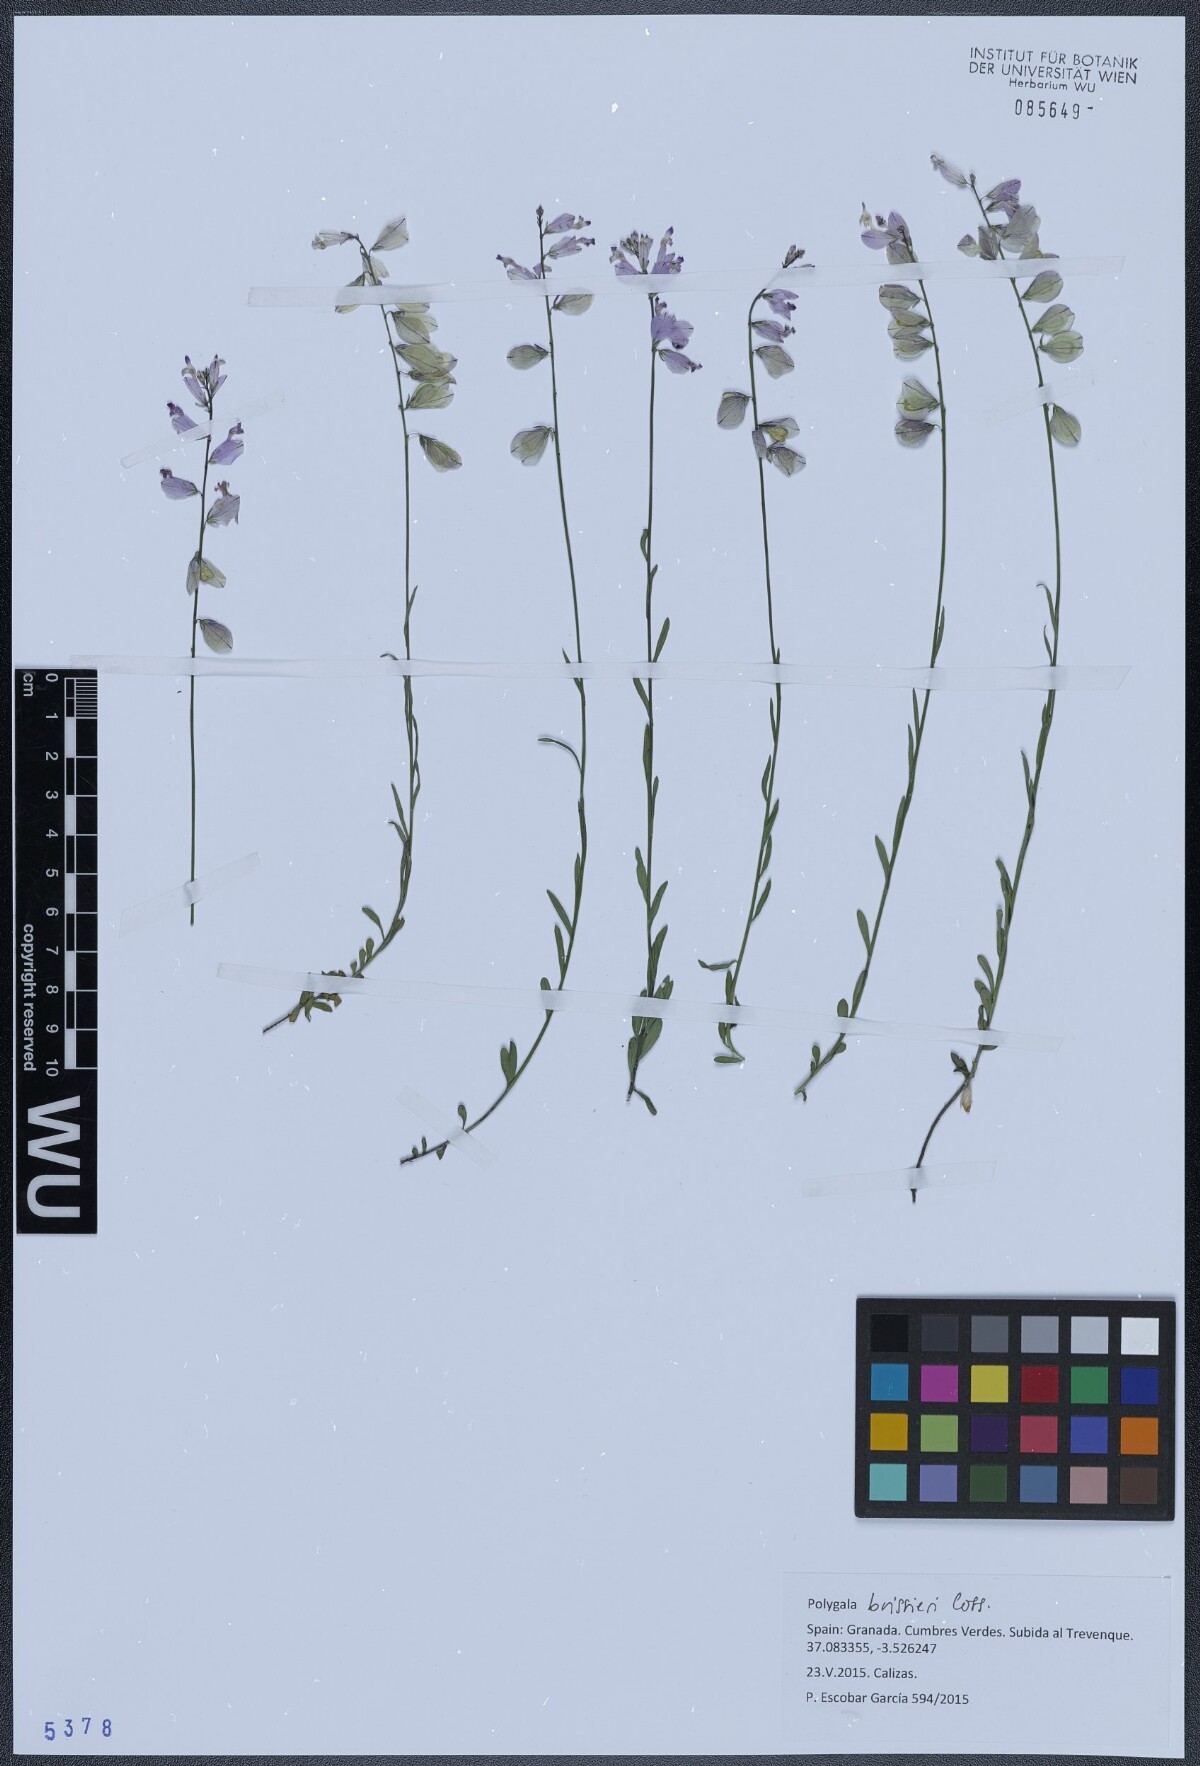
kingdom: Plantae
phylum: Tracheophyta
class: Magnoliopsida
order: Fabales
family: Polygalaceae
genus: Polygala
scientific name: Polygala boissieri
